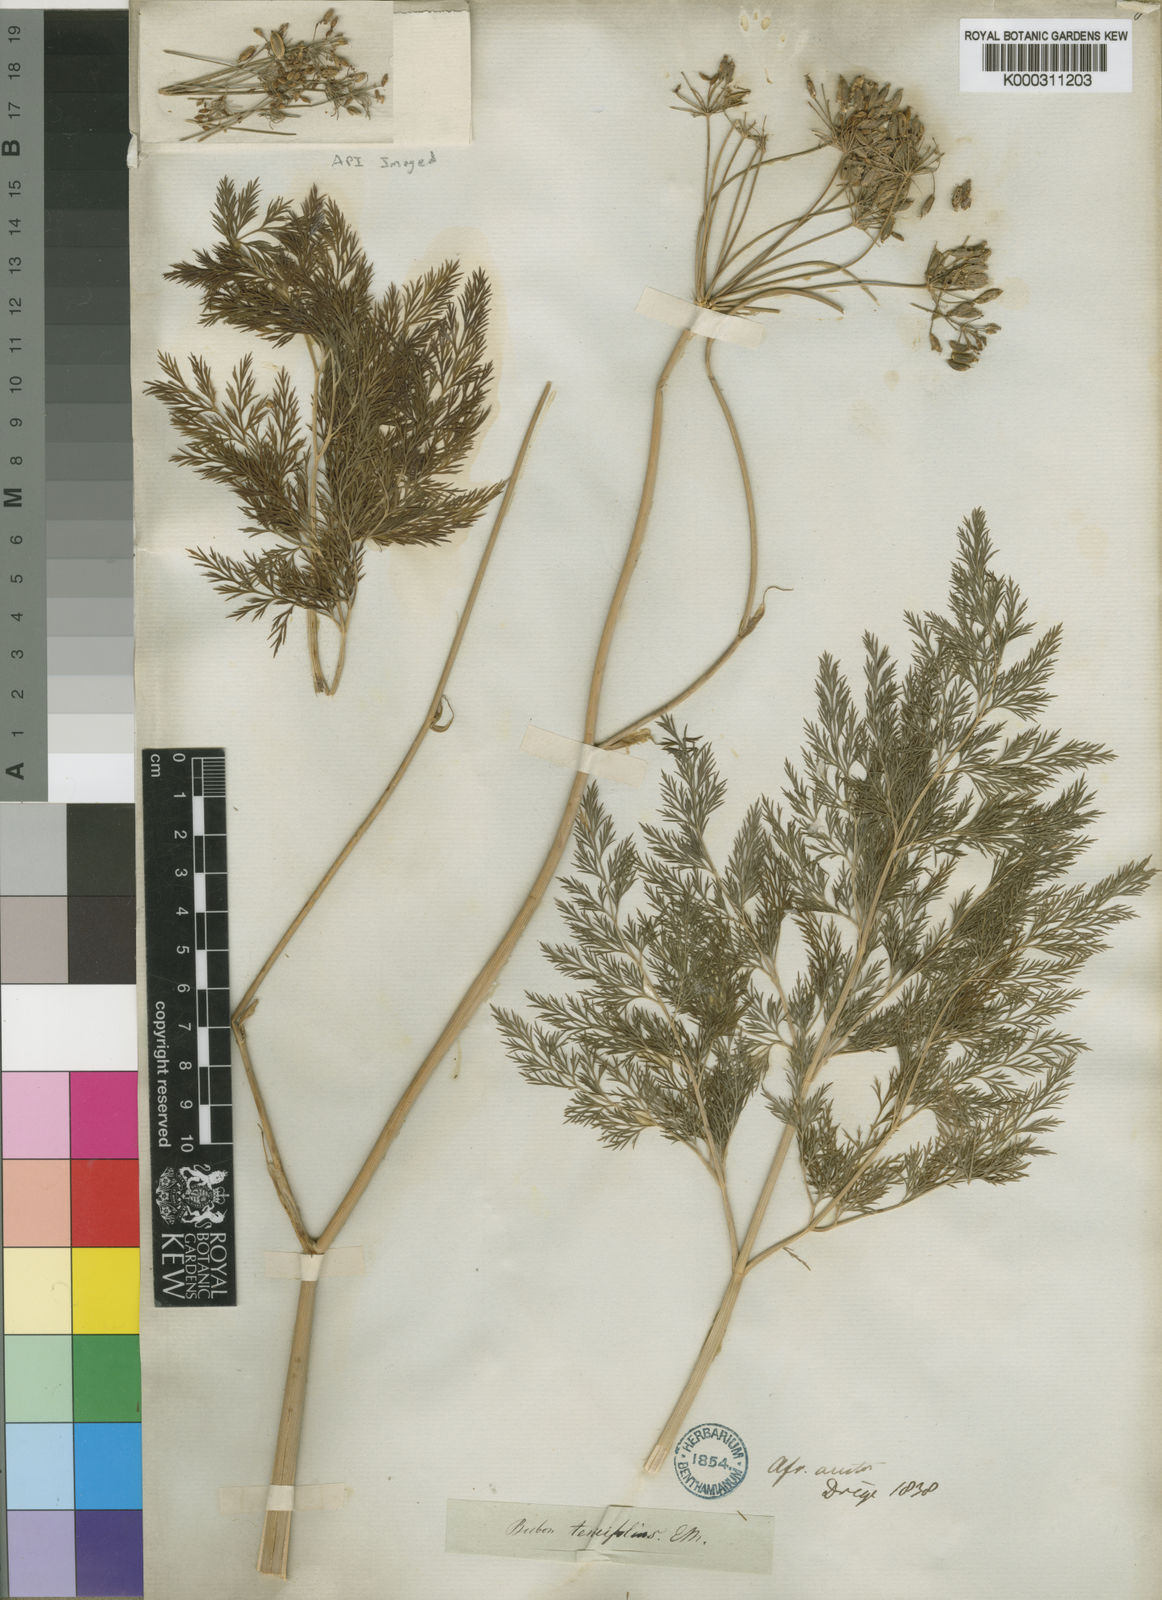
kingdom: Plantae
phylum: Tracheophyta
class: Magnoliopsida
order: Apiales
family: Apiaceae
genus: Notobubon
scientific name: Notobubon sonderi
